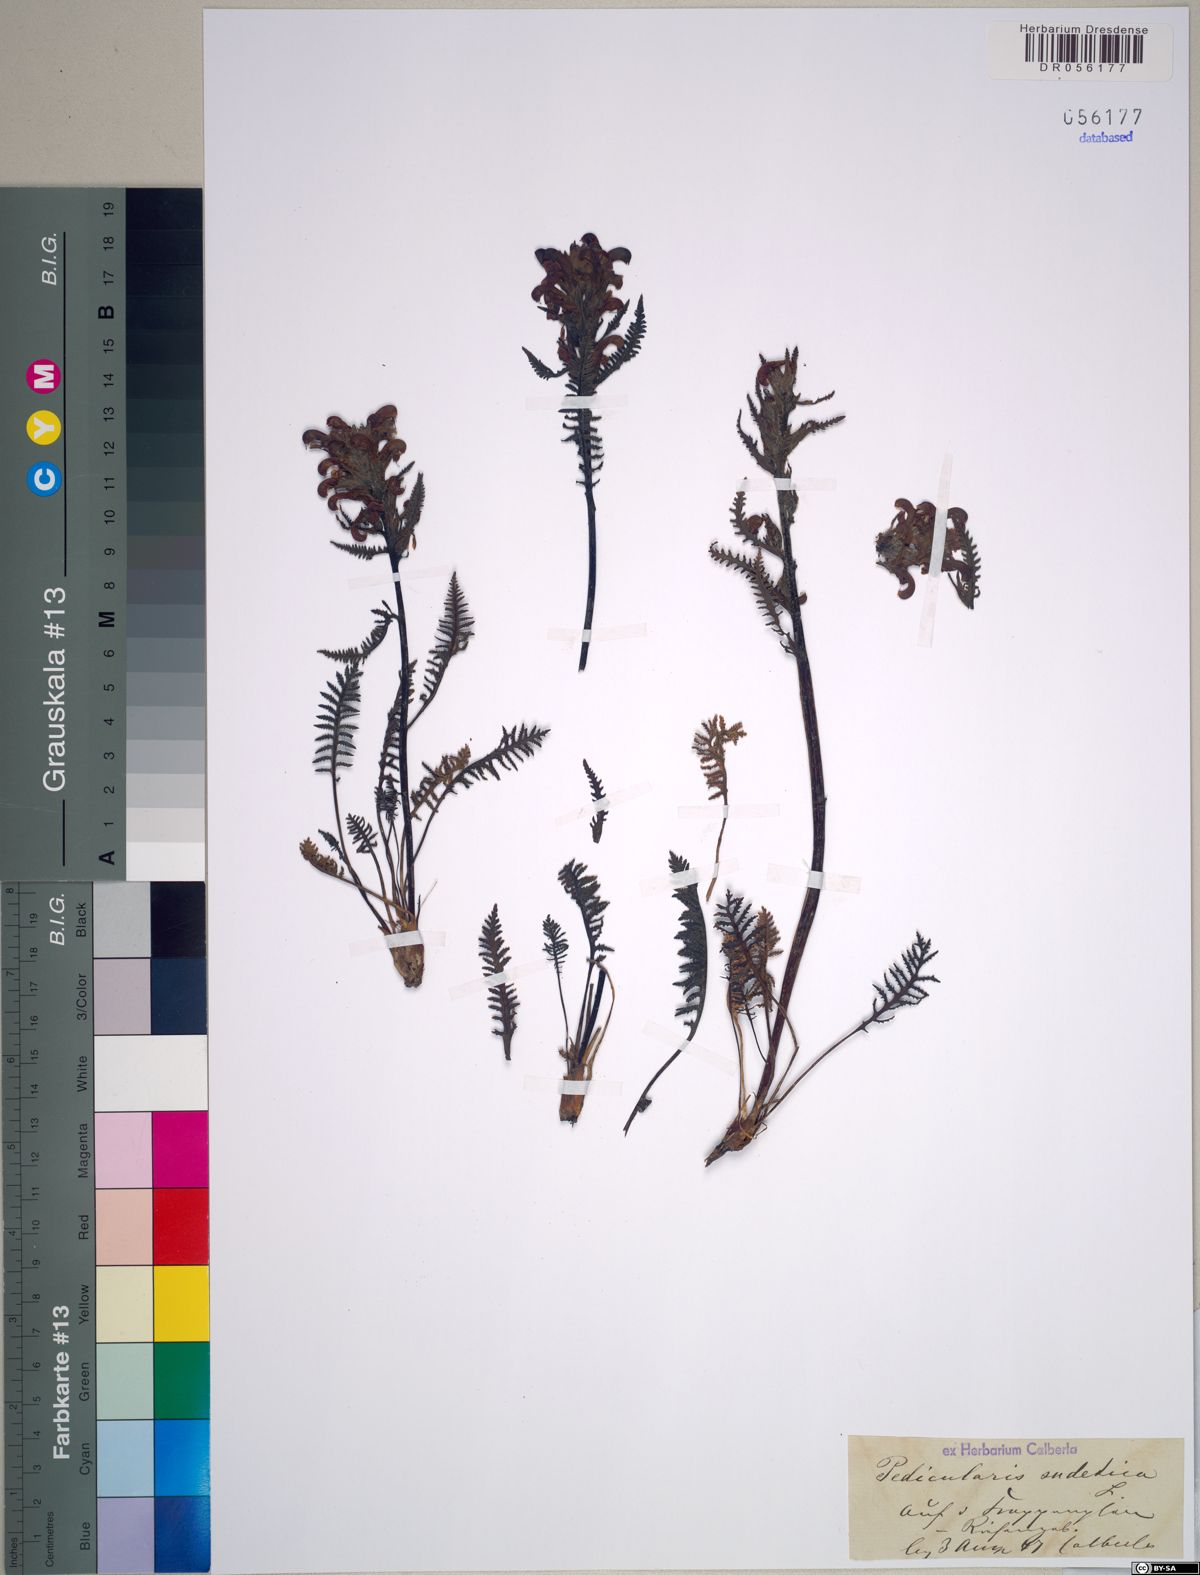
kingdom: Plantae
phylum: Tracheophyta
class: Magnoliopsida
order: Lamiales
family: Orobanchaceae
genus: Pedicularis
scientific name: Pedicularis sudetica
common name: Sudeten lousewort
